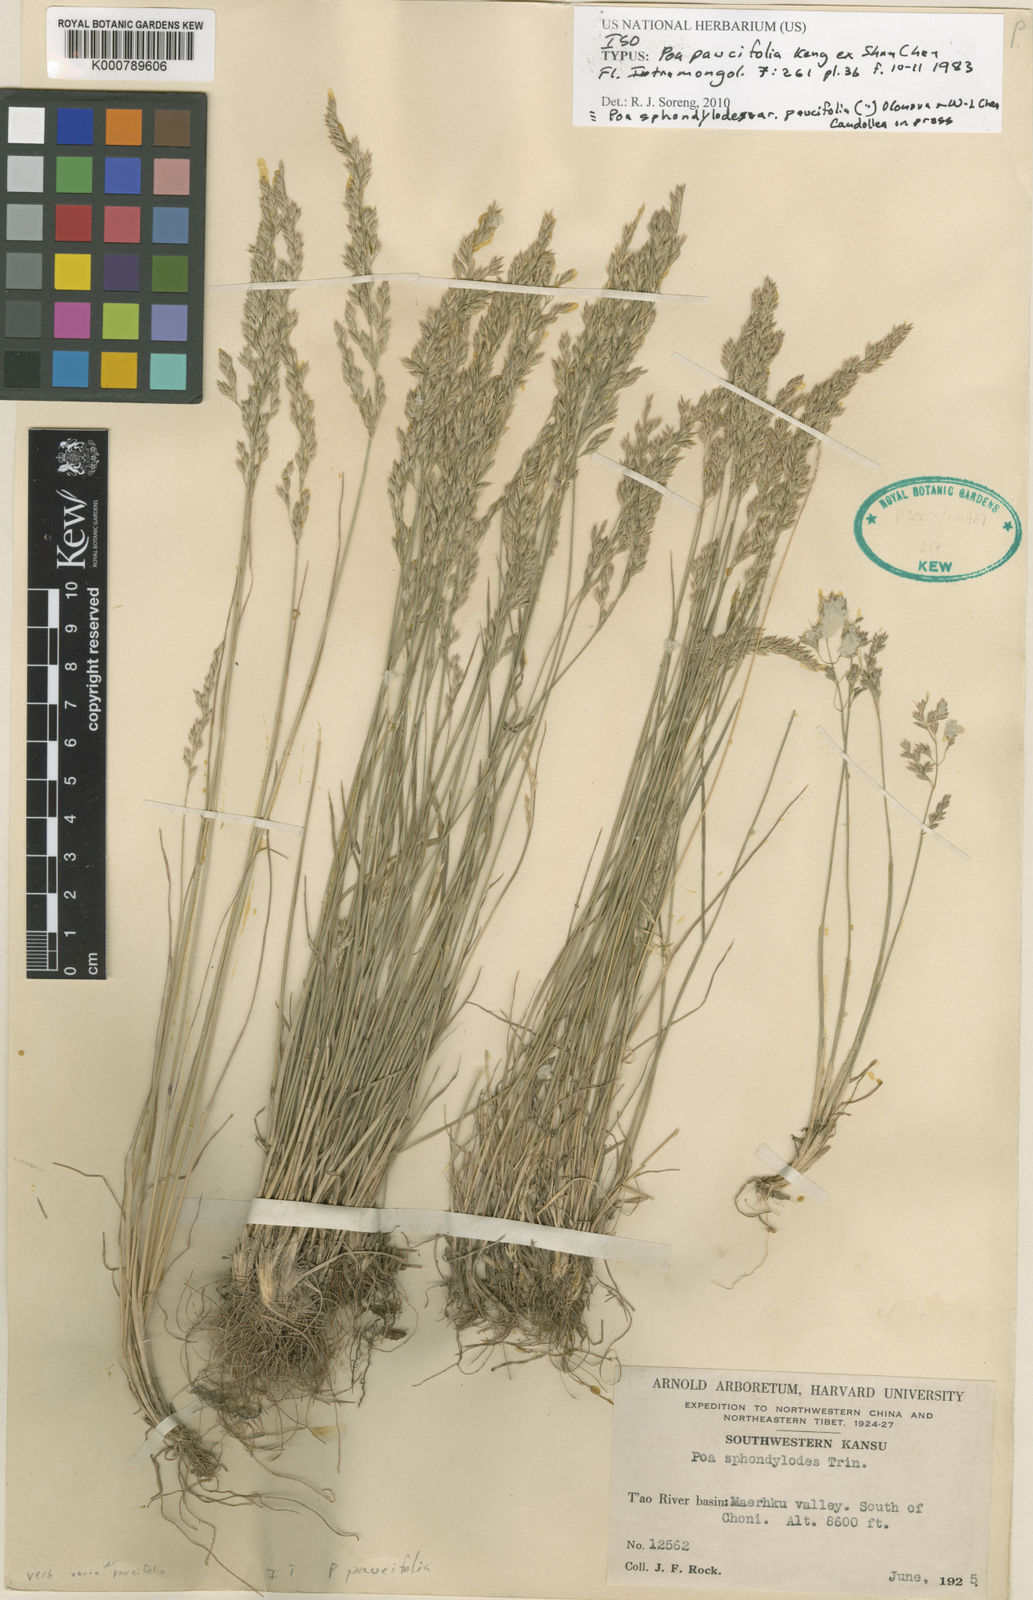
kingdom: Plantae
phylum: Tracheophyta
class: Liliopsida
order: Poales
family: Poaceae
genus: Poa
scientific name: Poa sphondylodes
